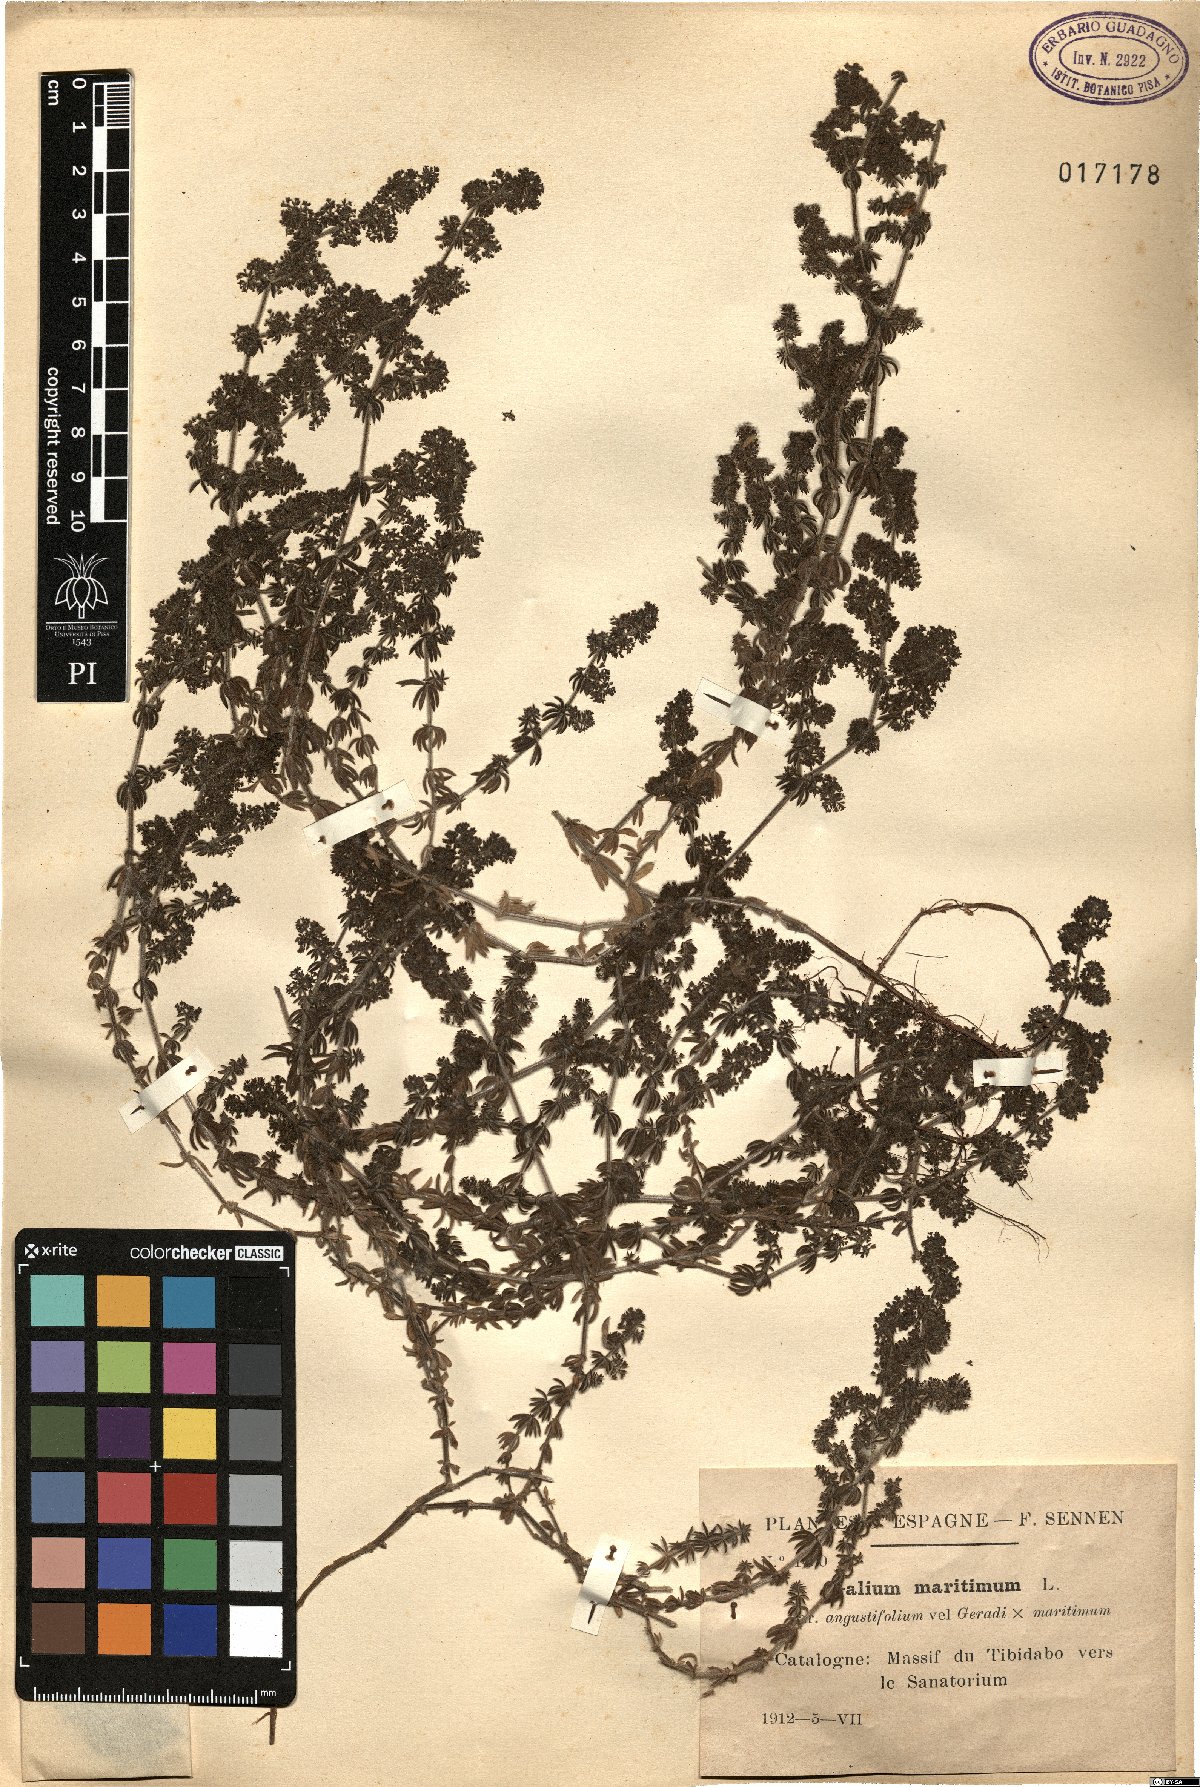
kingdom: Plantae
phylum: Tracheophyta
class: Magnoliopsida
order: Gentianales
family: Rubiaceae
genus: Galium
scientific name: Galium maritimum
